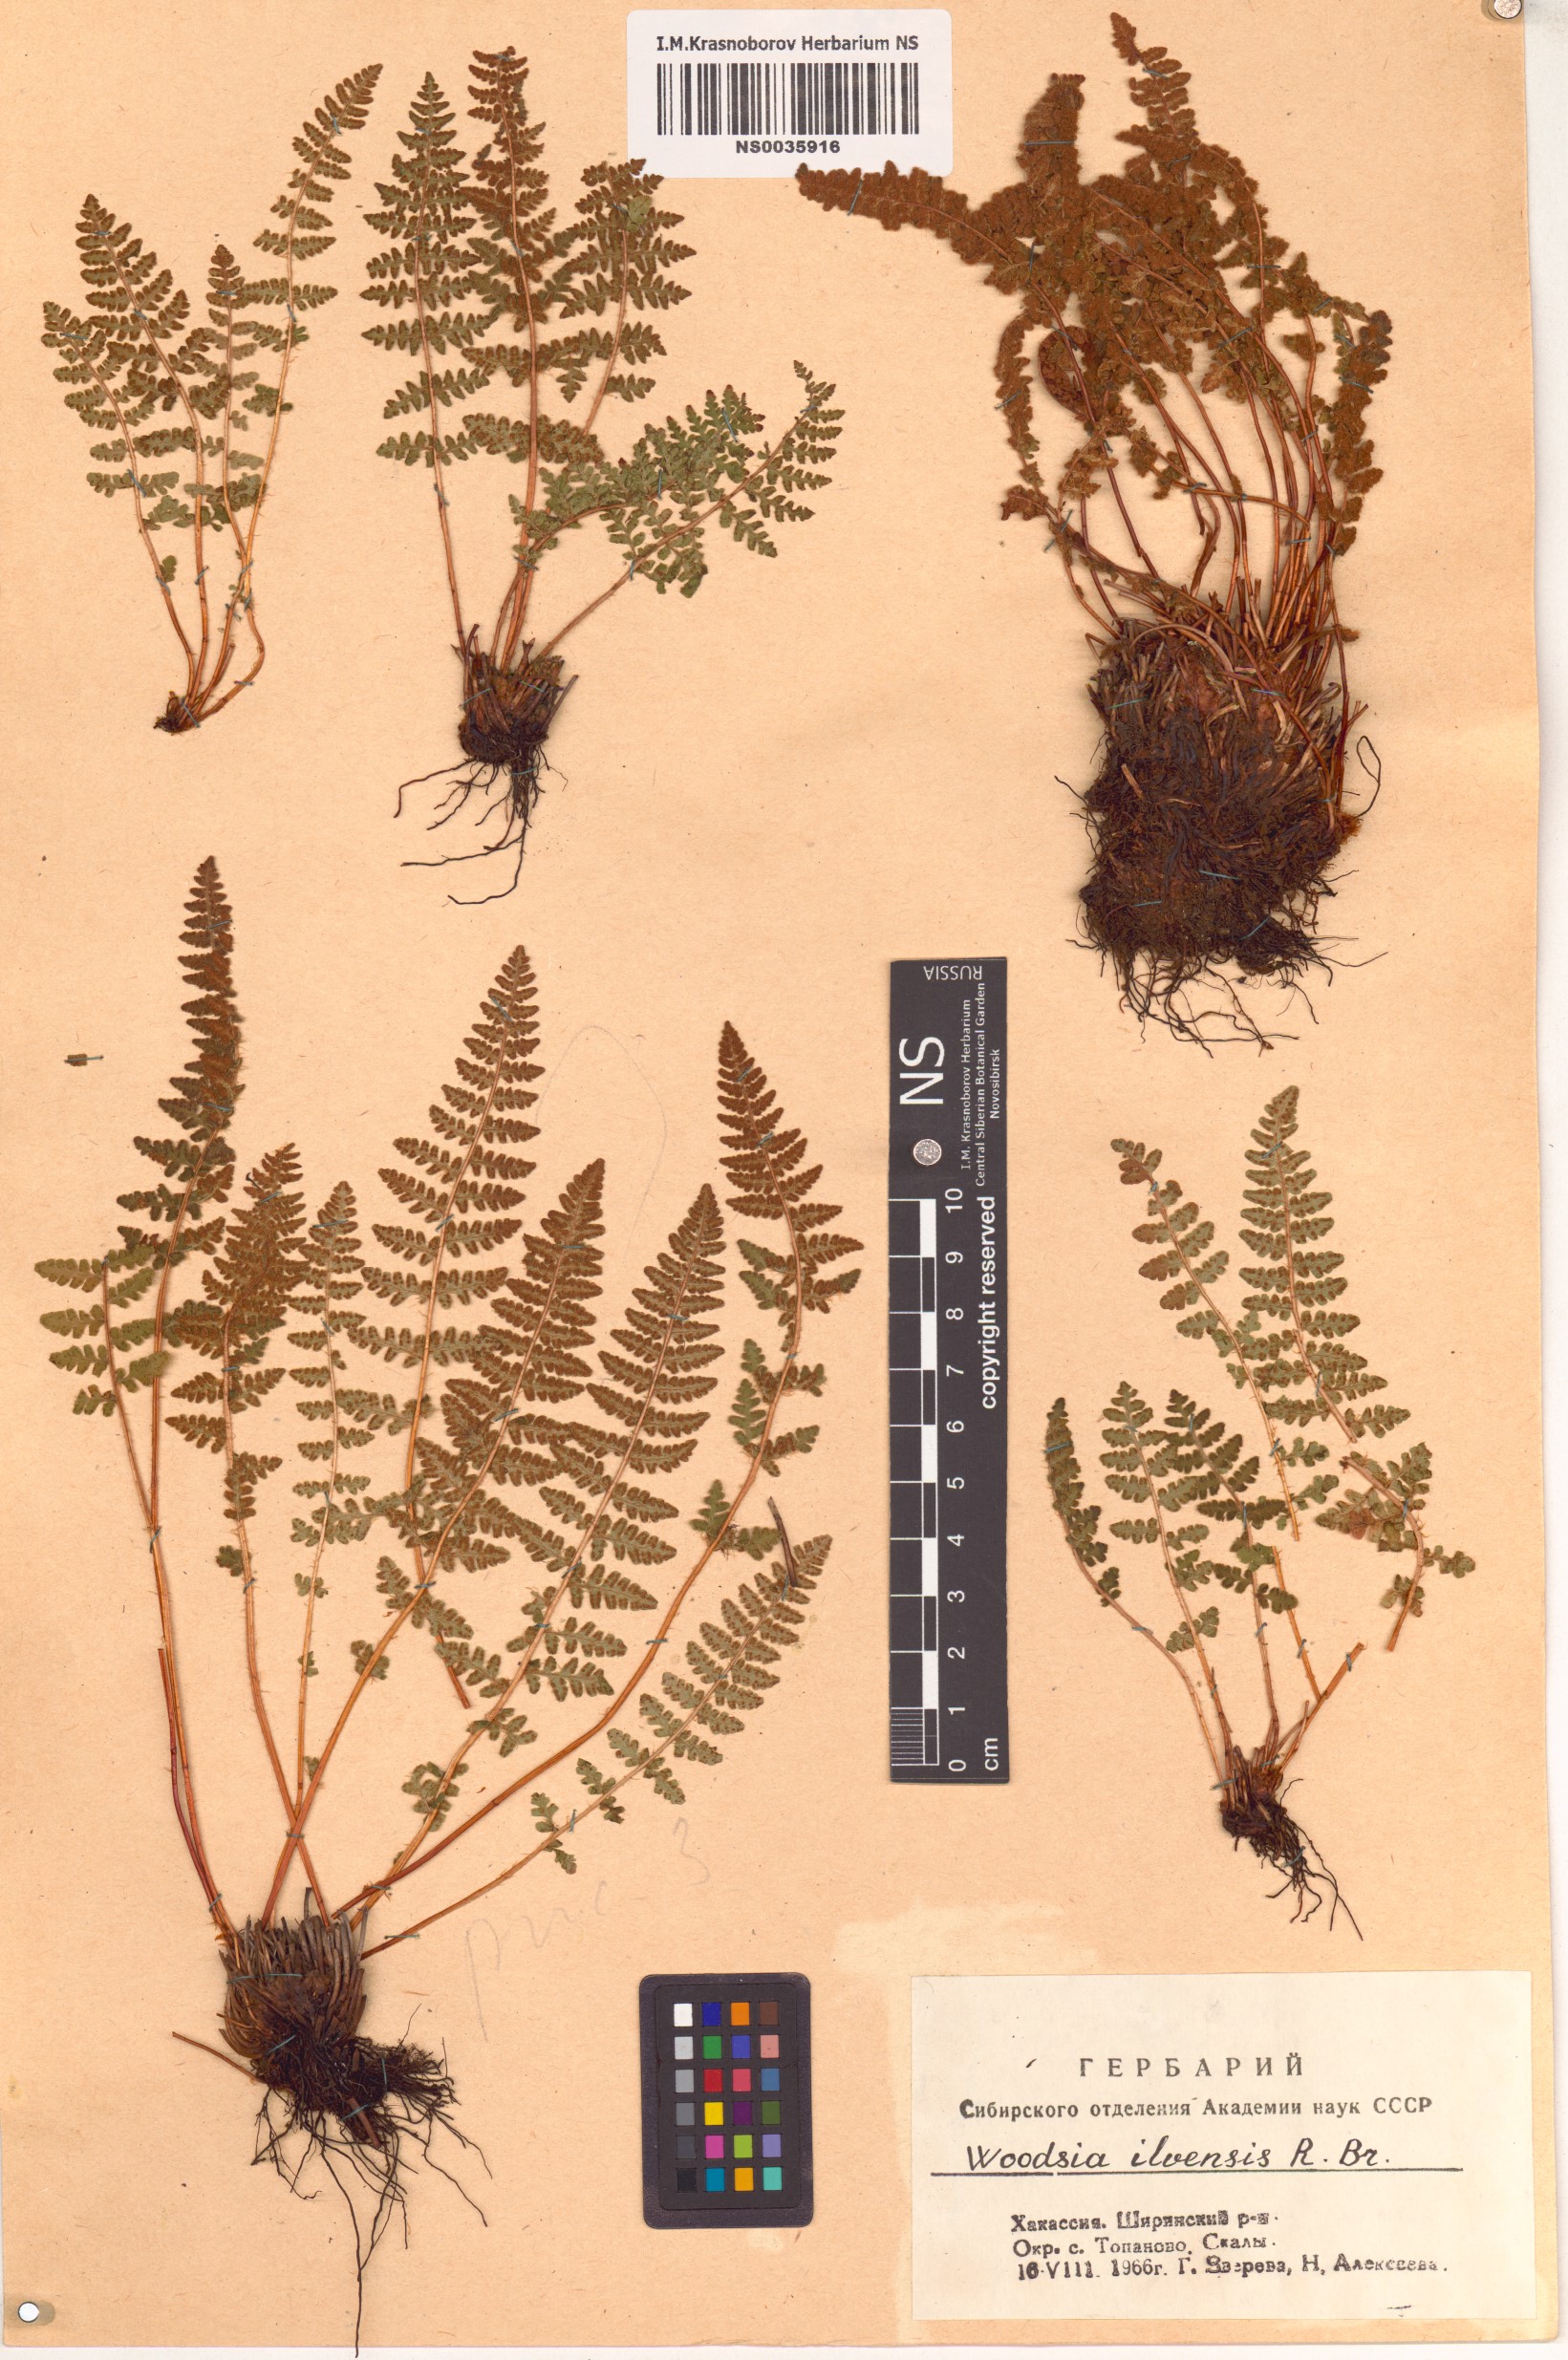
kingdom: Plantae
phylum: Tracheophyta
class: Polypodiopsida
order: Polypodiales
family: Woodsiaceae
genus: Woodsia
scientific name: Woodsia ilvensis
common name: Fragrant woodsia
